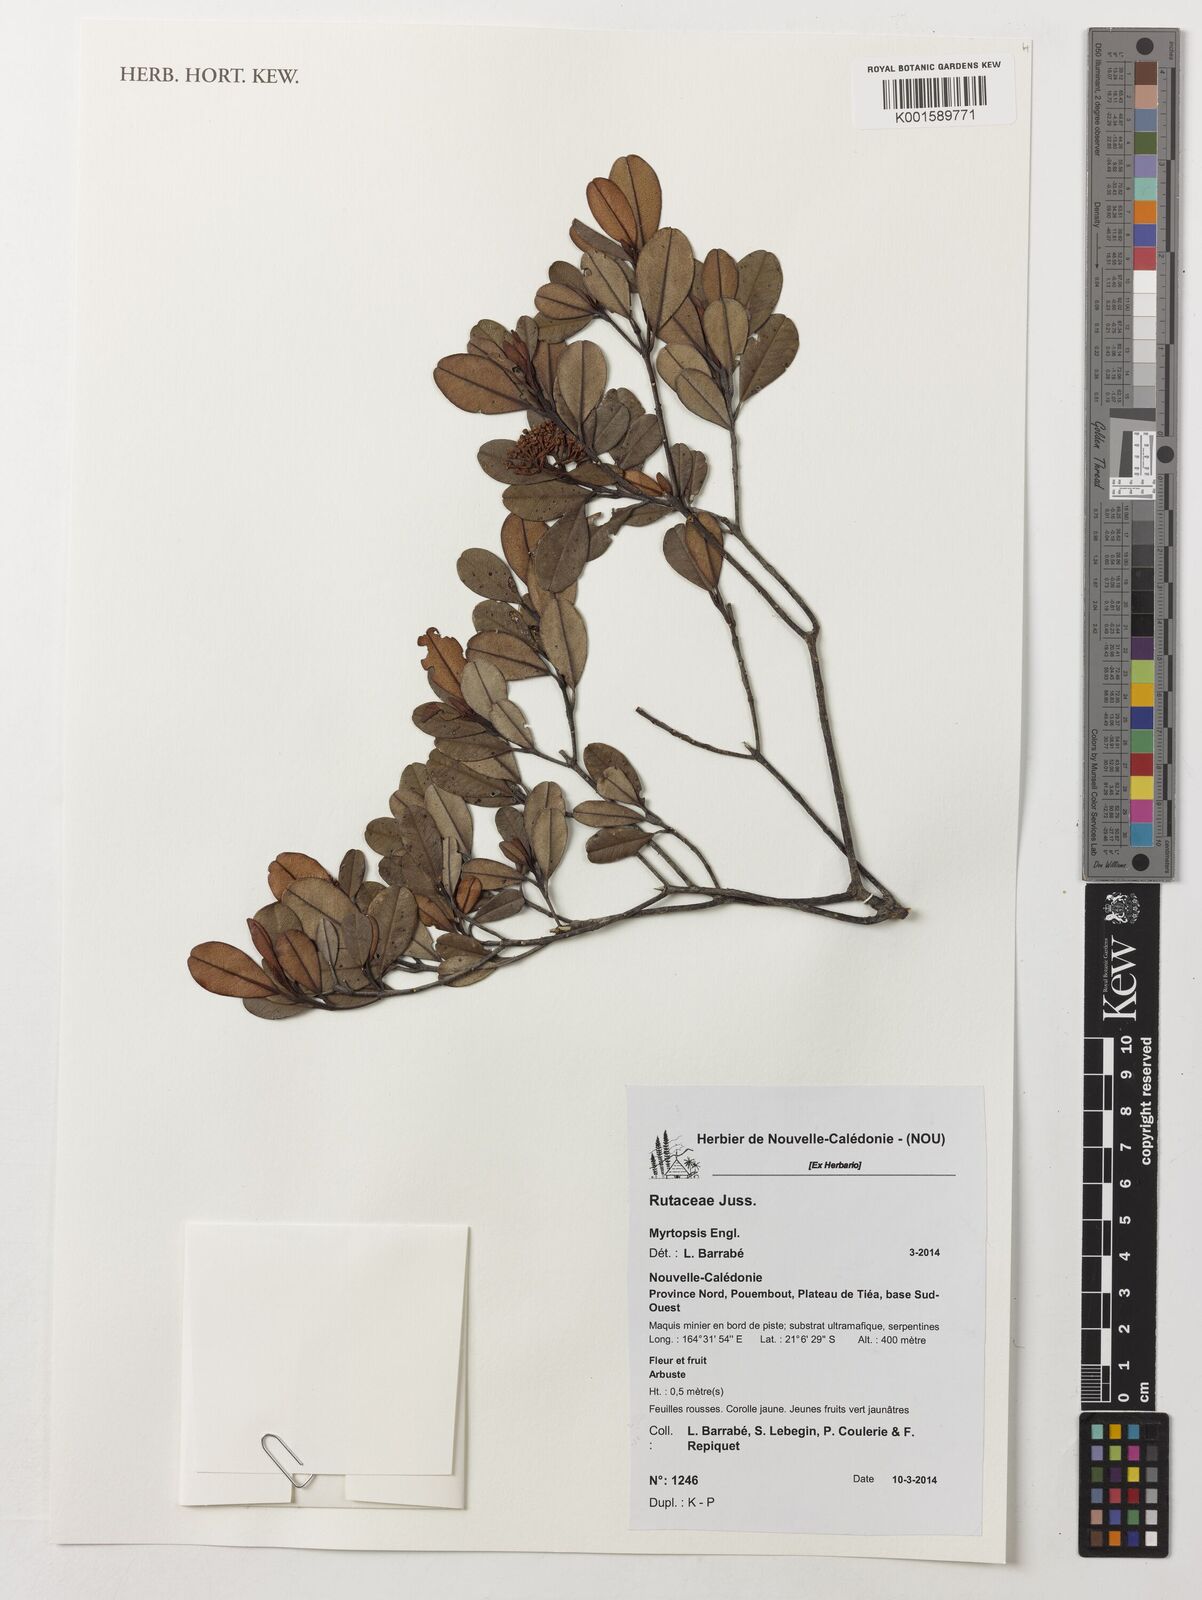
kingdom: Plantae
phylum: Tracheophyta
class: Magnoliopsida
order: Sapindales
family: Rutaceae
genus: Myrtopsis
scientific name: Myrtopsis
